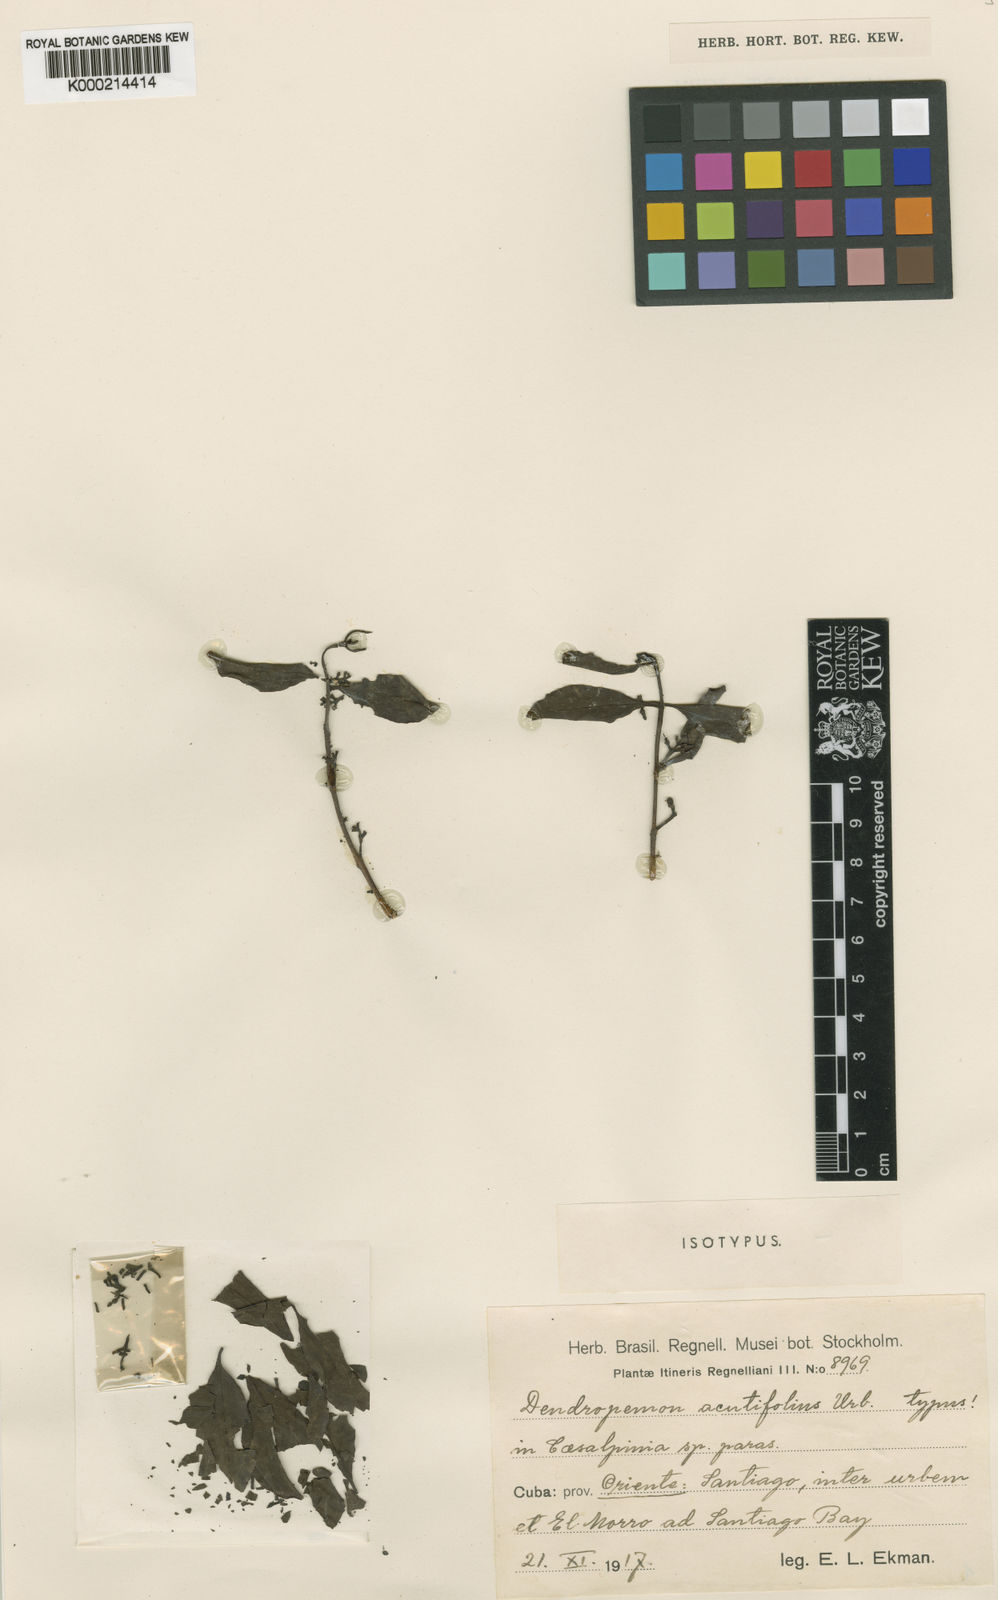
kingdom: Plantae
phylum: Tracheophyta
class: Magnoliopsida
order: Santalales
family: Loranthaceae
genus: Dendropemon
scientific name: Dendropemon acutifolius
